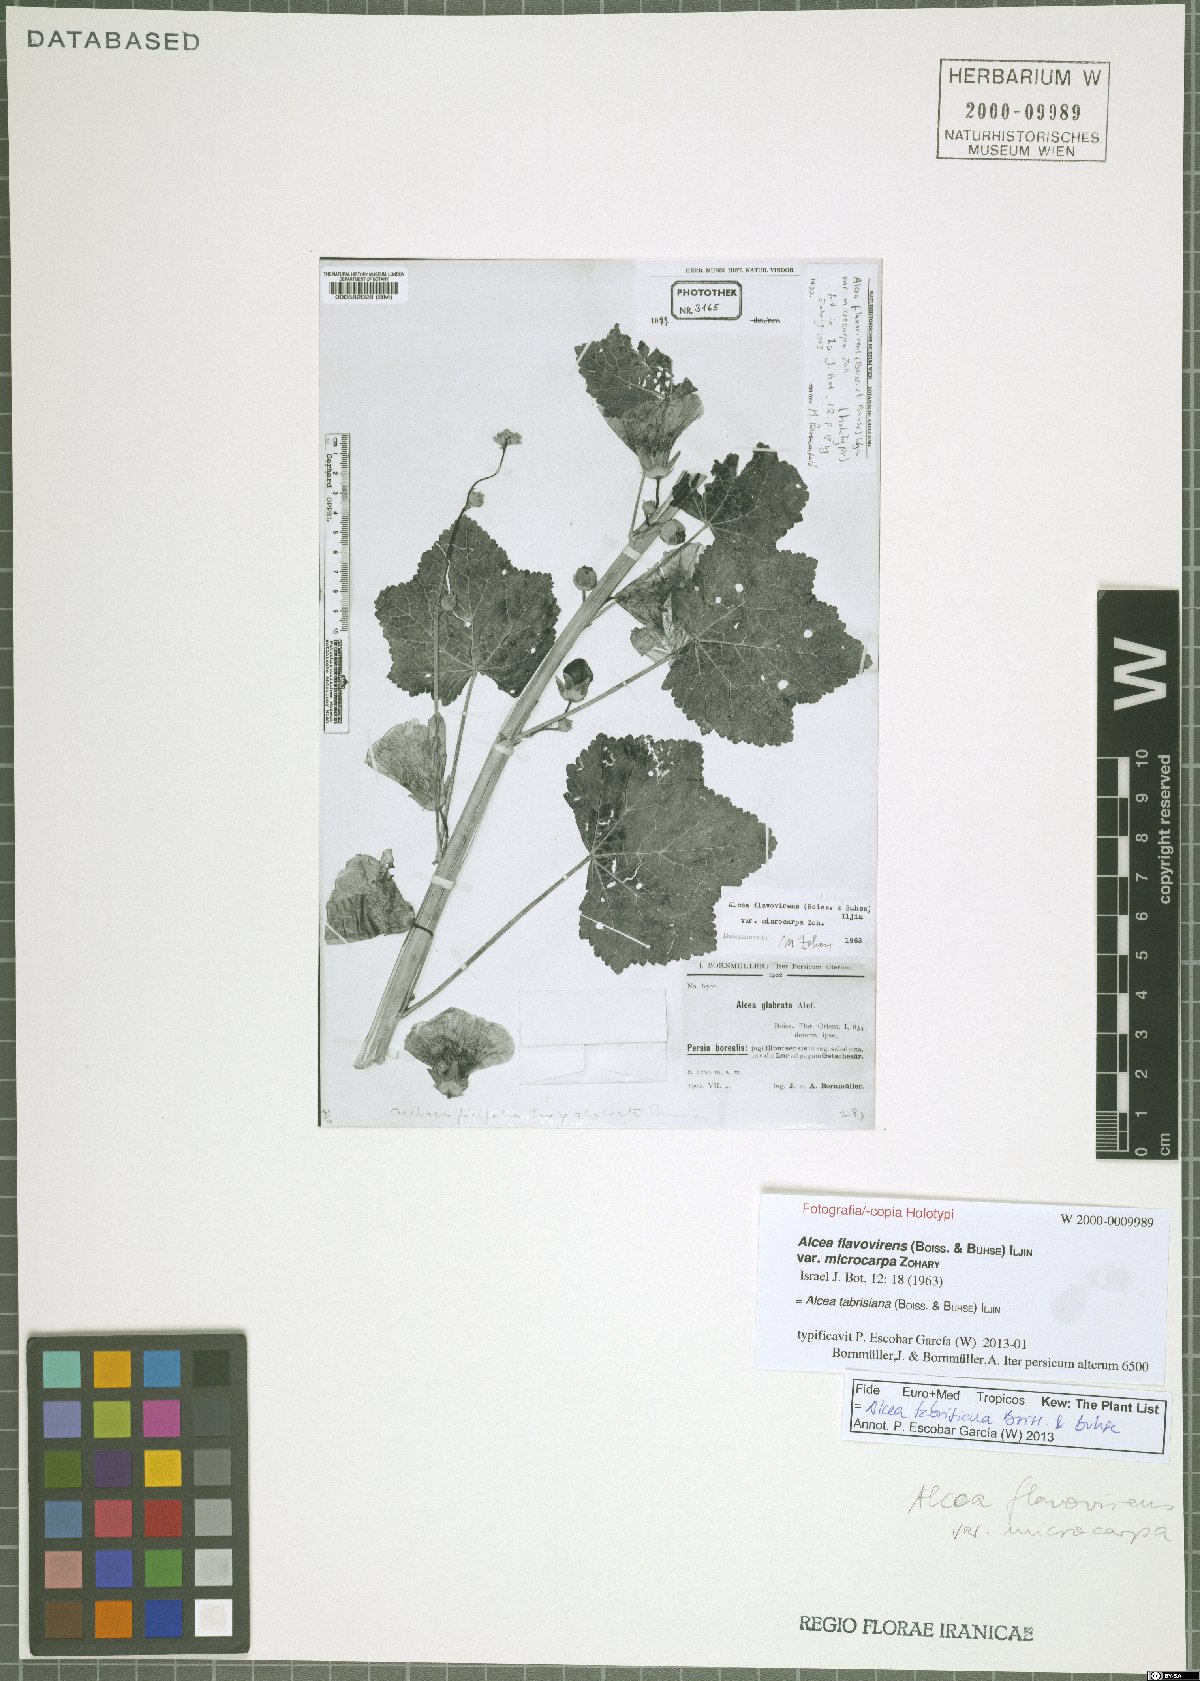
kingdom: Plantae
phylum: Tracheophyta
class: Magnoliopsida
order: Malvales
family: Malvaceae
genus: Alcea
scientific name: Alcea tabrisiana
